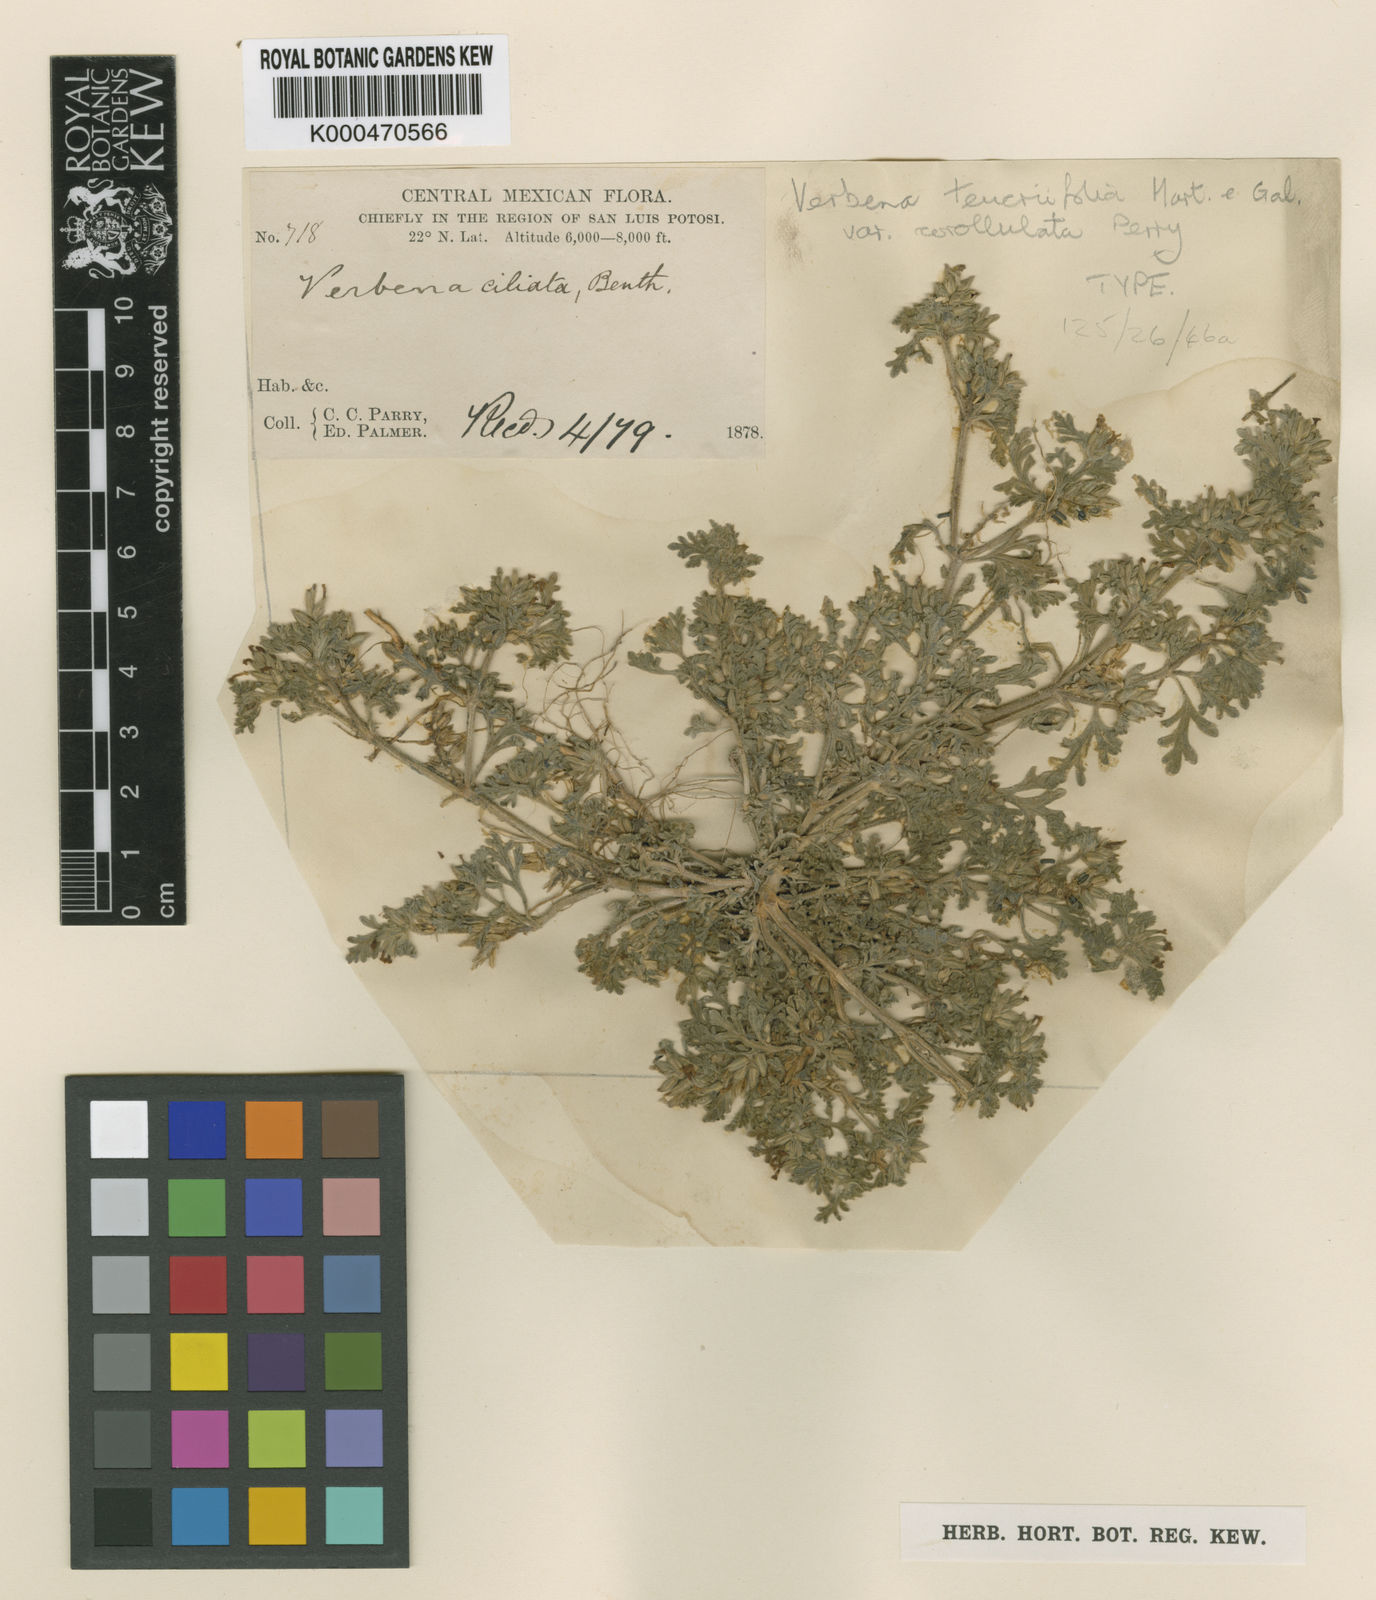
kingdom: Plantae
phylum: Tracheophyta
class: Magnoliopsida
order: Lamiales
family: Verbenaceae
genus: Verbena
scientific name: Verbena teucriifolia
